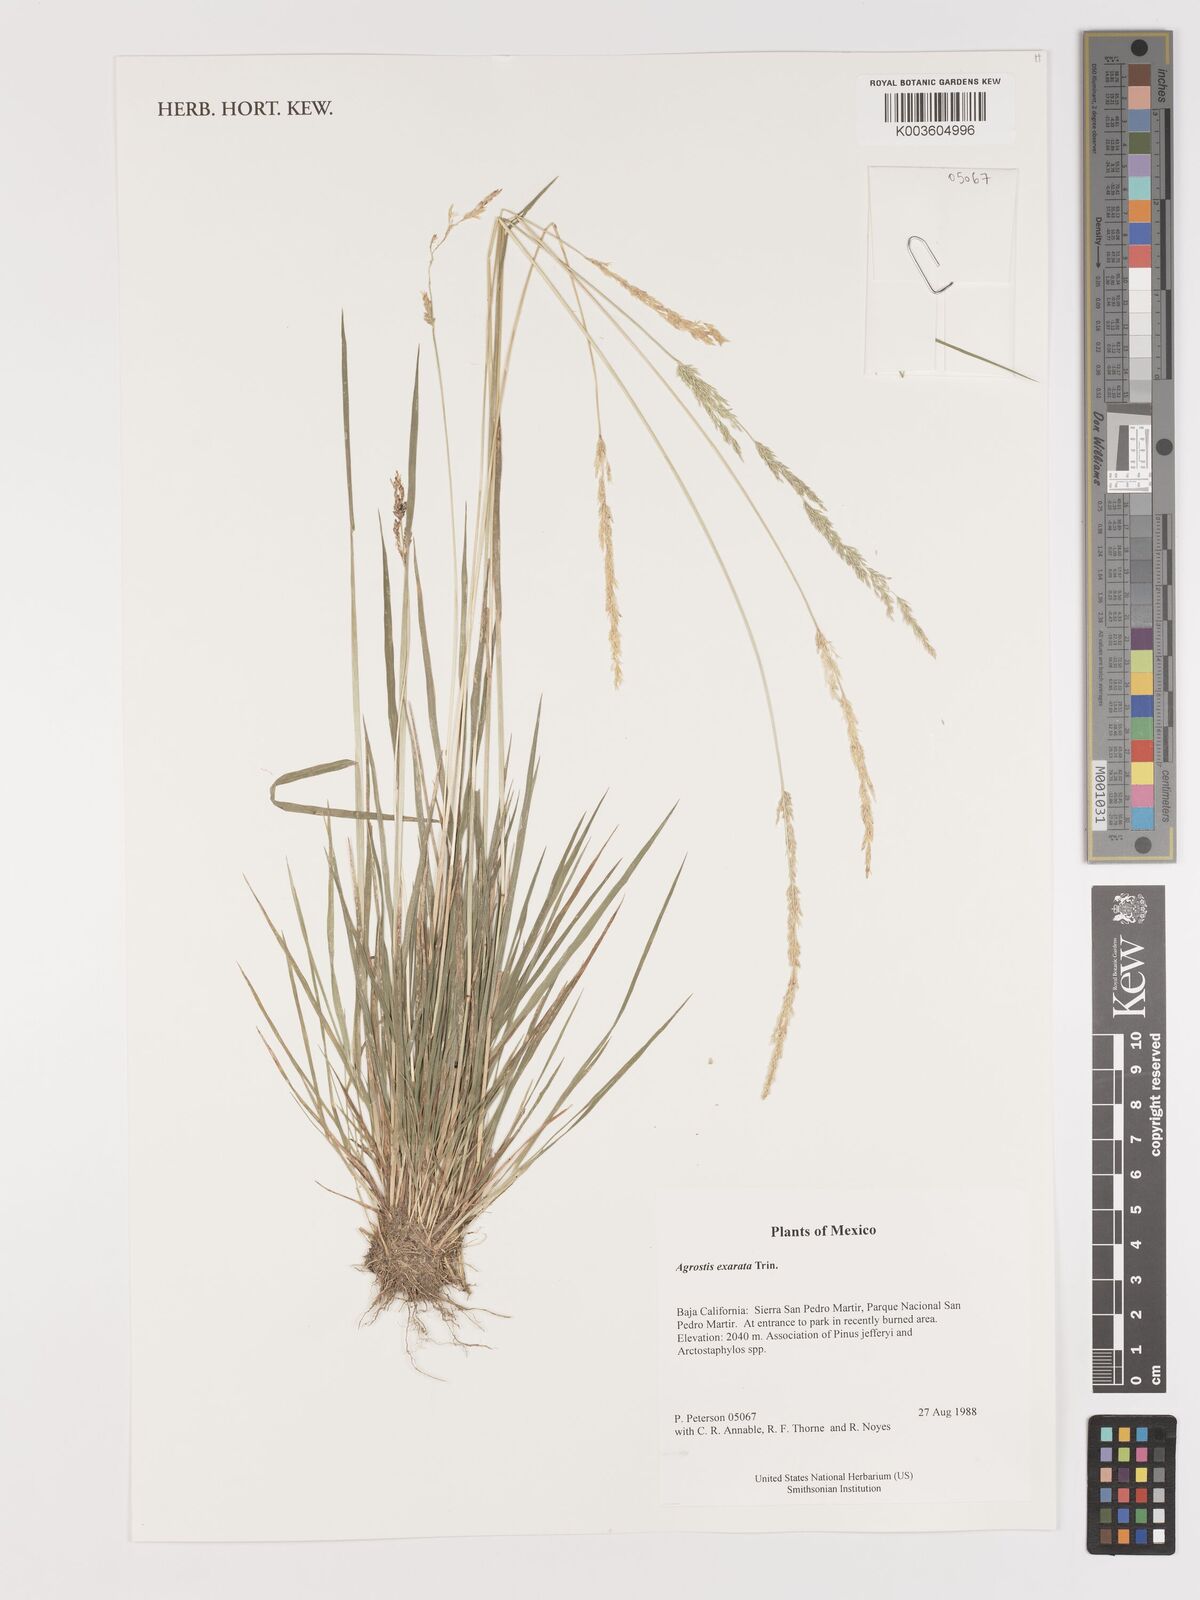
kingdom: Plantae
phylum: Tracheophyta
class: Liliopsida
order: Poales
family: Poaceae
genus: Agrostis
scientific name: Agrostis exarata
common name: Spike bent
